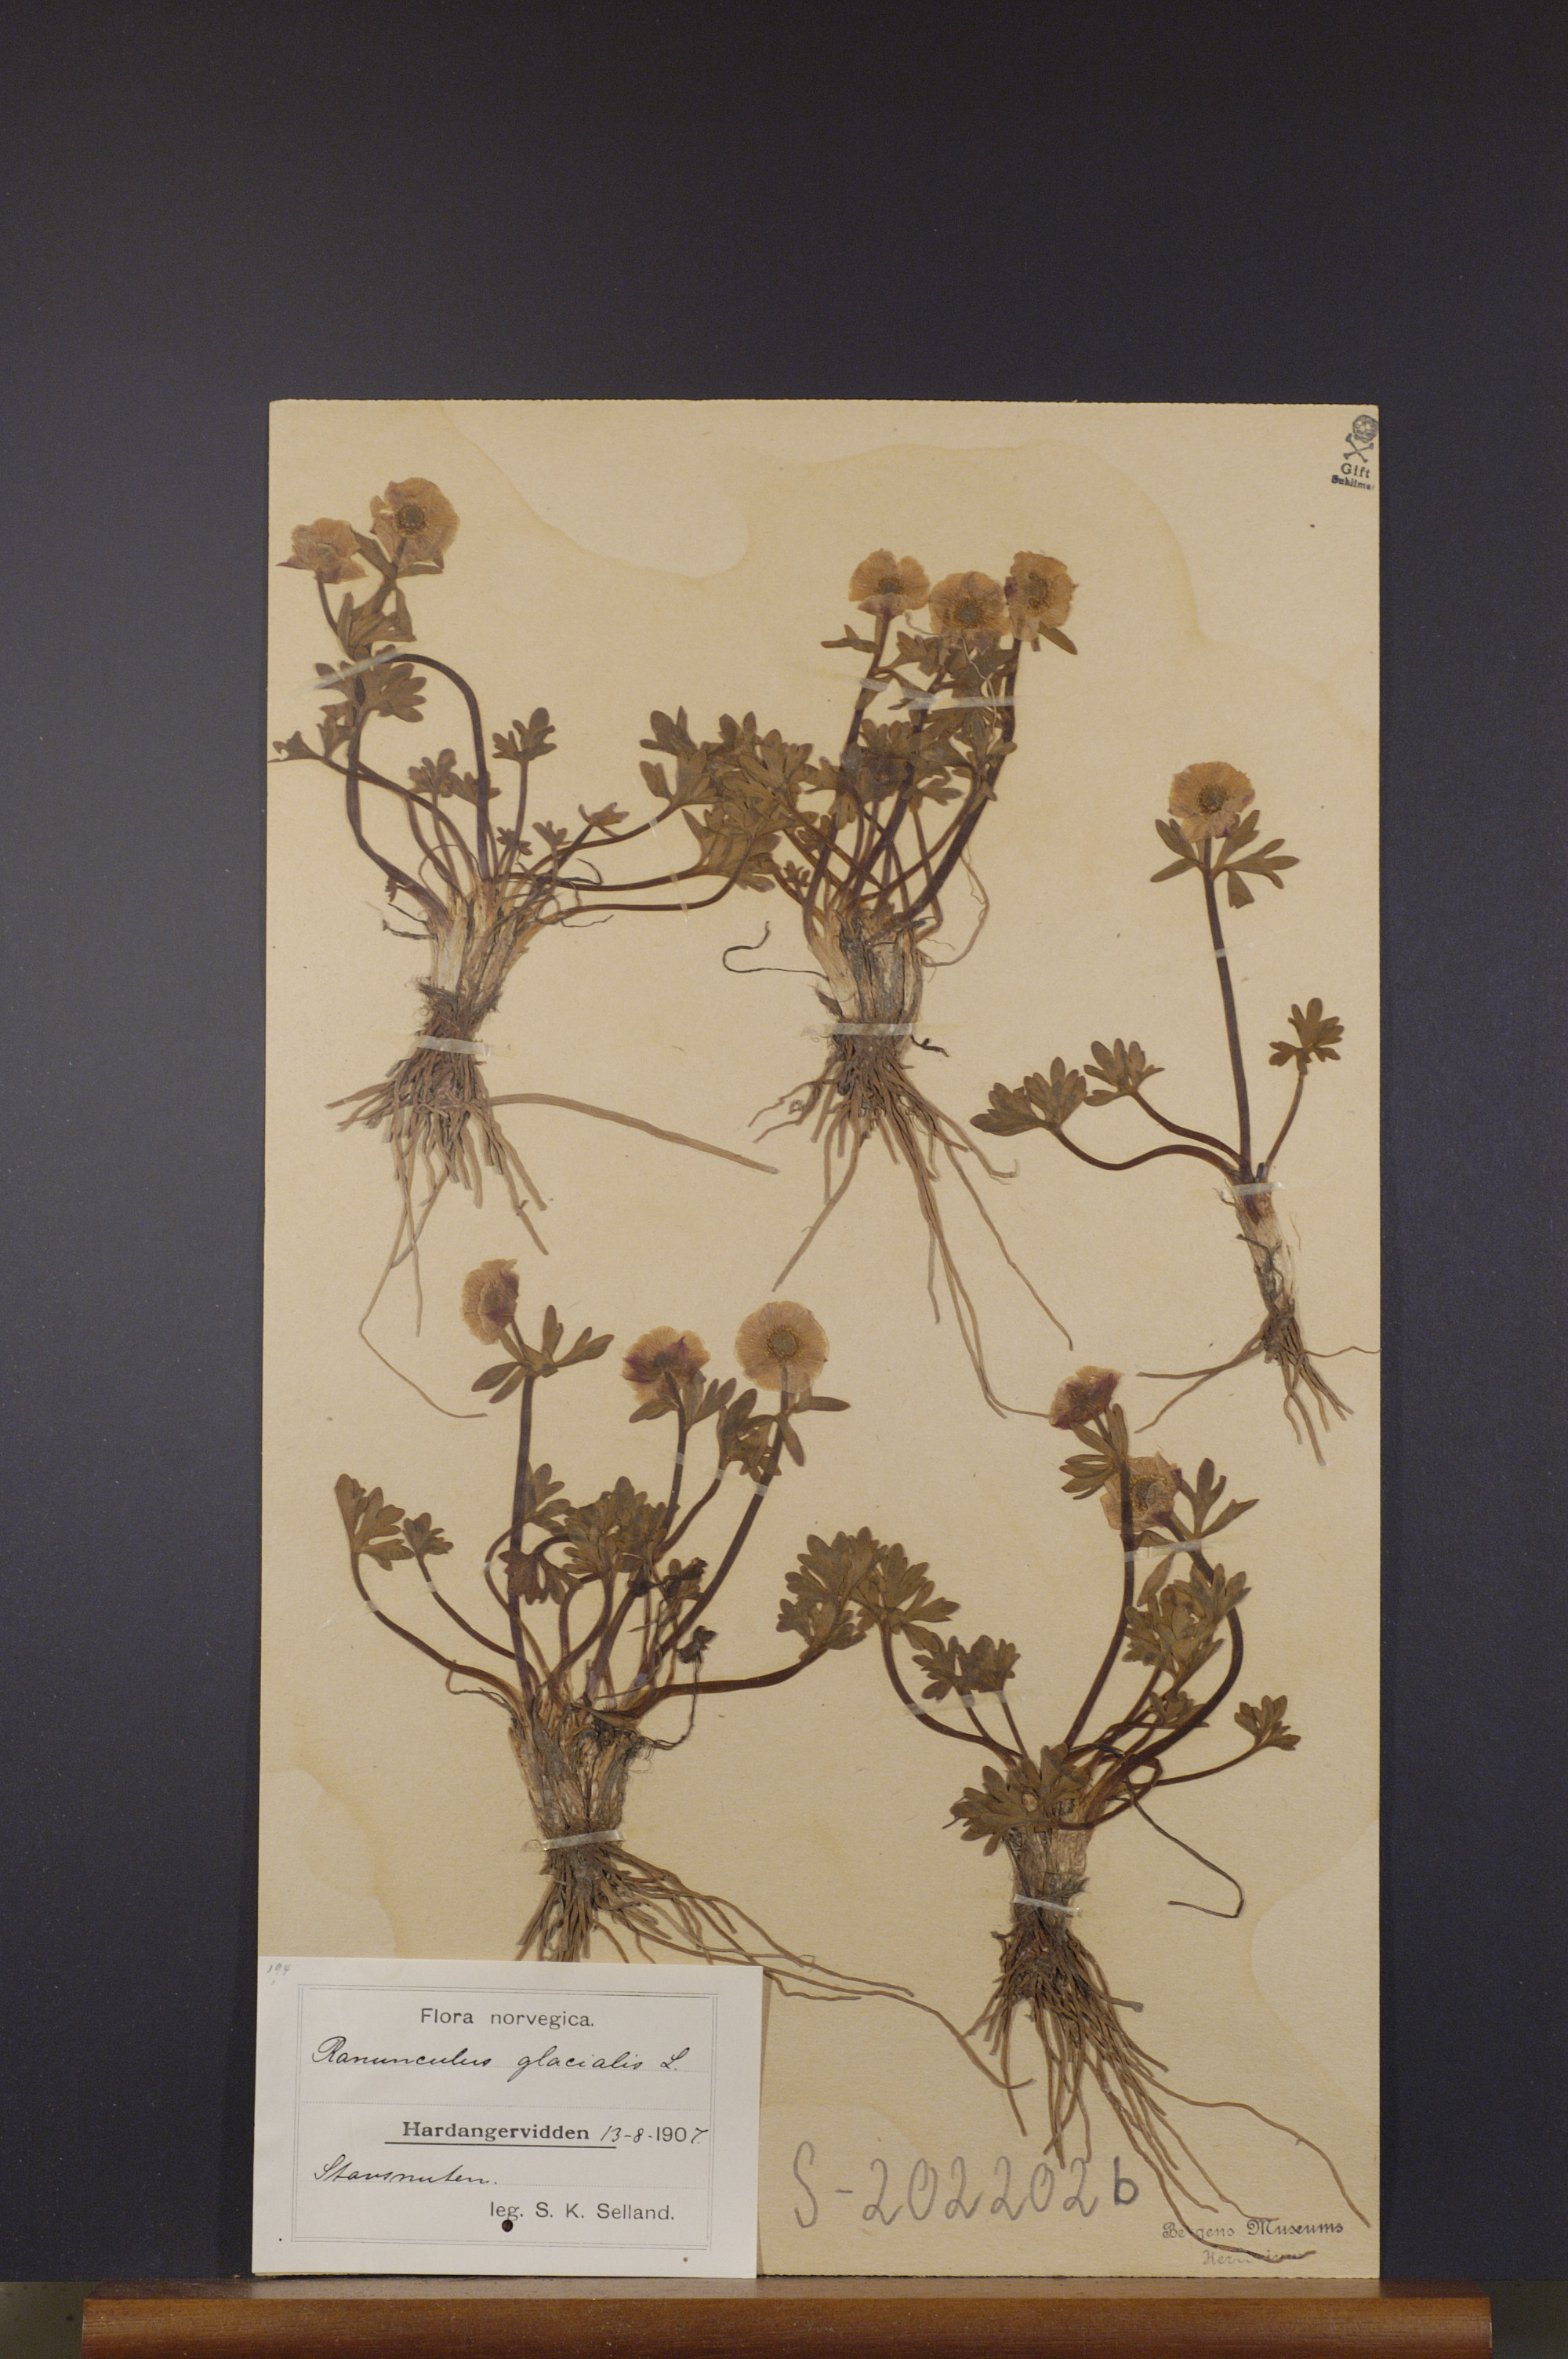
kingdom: Plantae
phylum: Tracheophyta
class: Magnoliopsida
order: Ranunculales
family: Ranunculaceae
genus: Ranunculus
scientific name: Ranunculus glacialis
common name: Glacier buttercup
